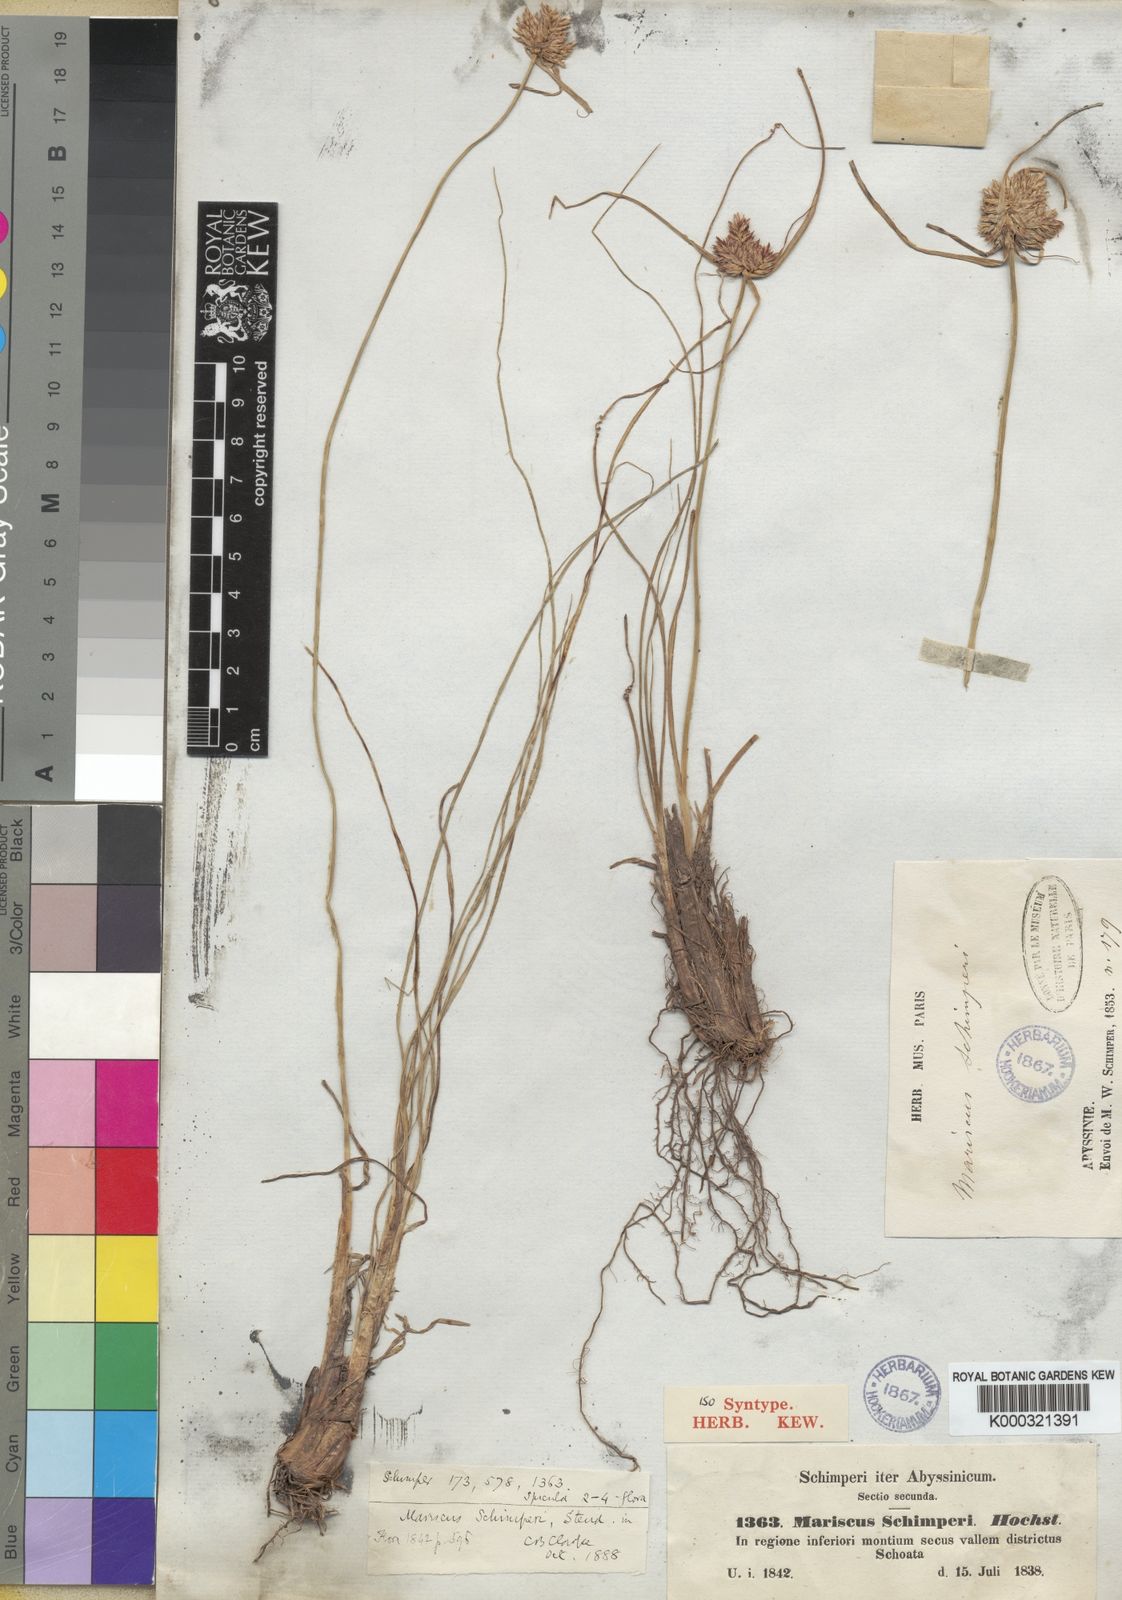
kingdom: Plantae
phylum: Tracheophyta
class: Liliopsida
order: Poales
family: Cyperaceae
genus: Cyperus
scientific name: Cyperus cruentus
